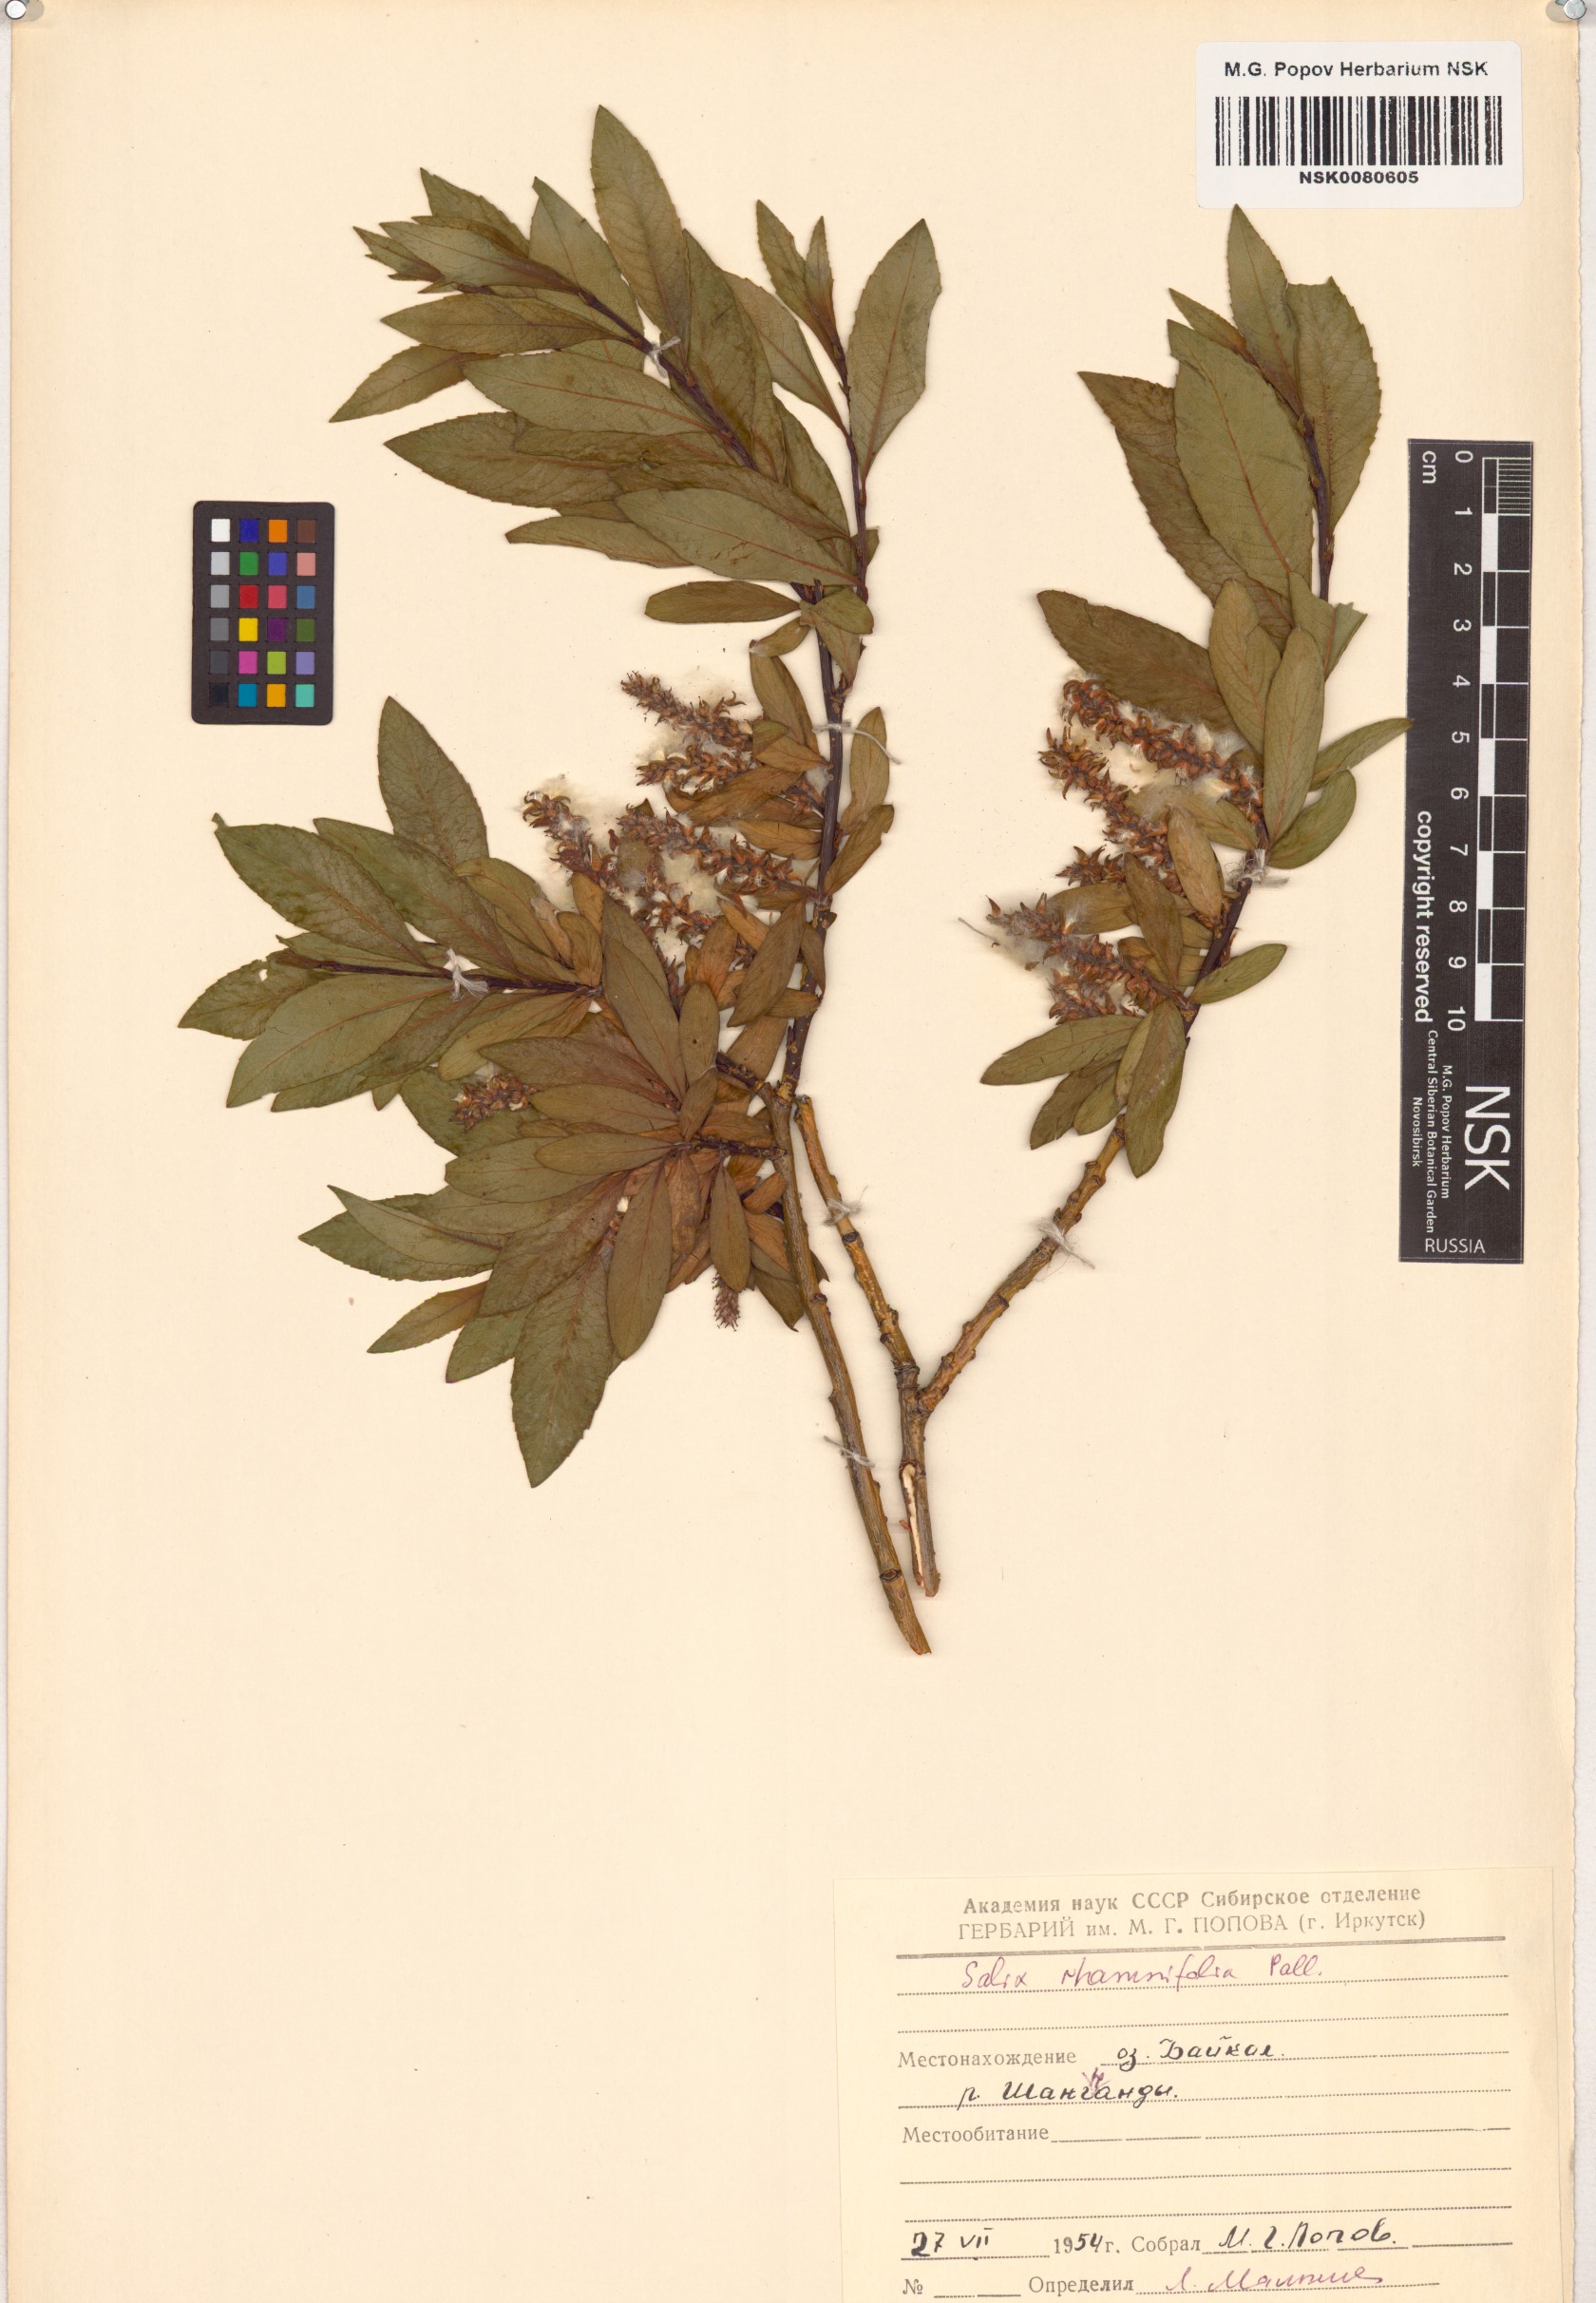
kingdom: Plantae
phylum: Tracheophyta
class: Magnoliopsida
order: Malpighiales
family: Salicaceae
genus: Salix
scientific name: Salix rhamnifolia
